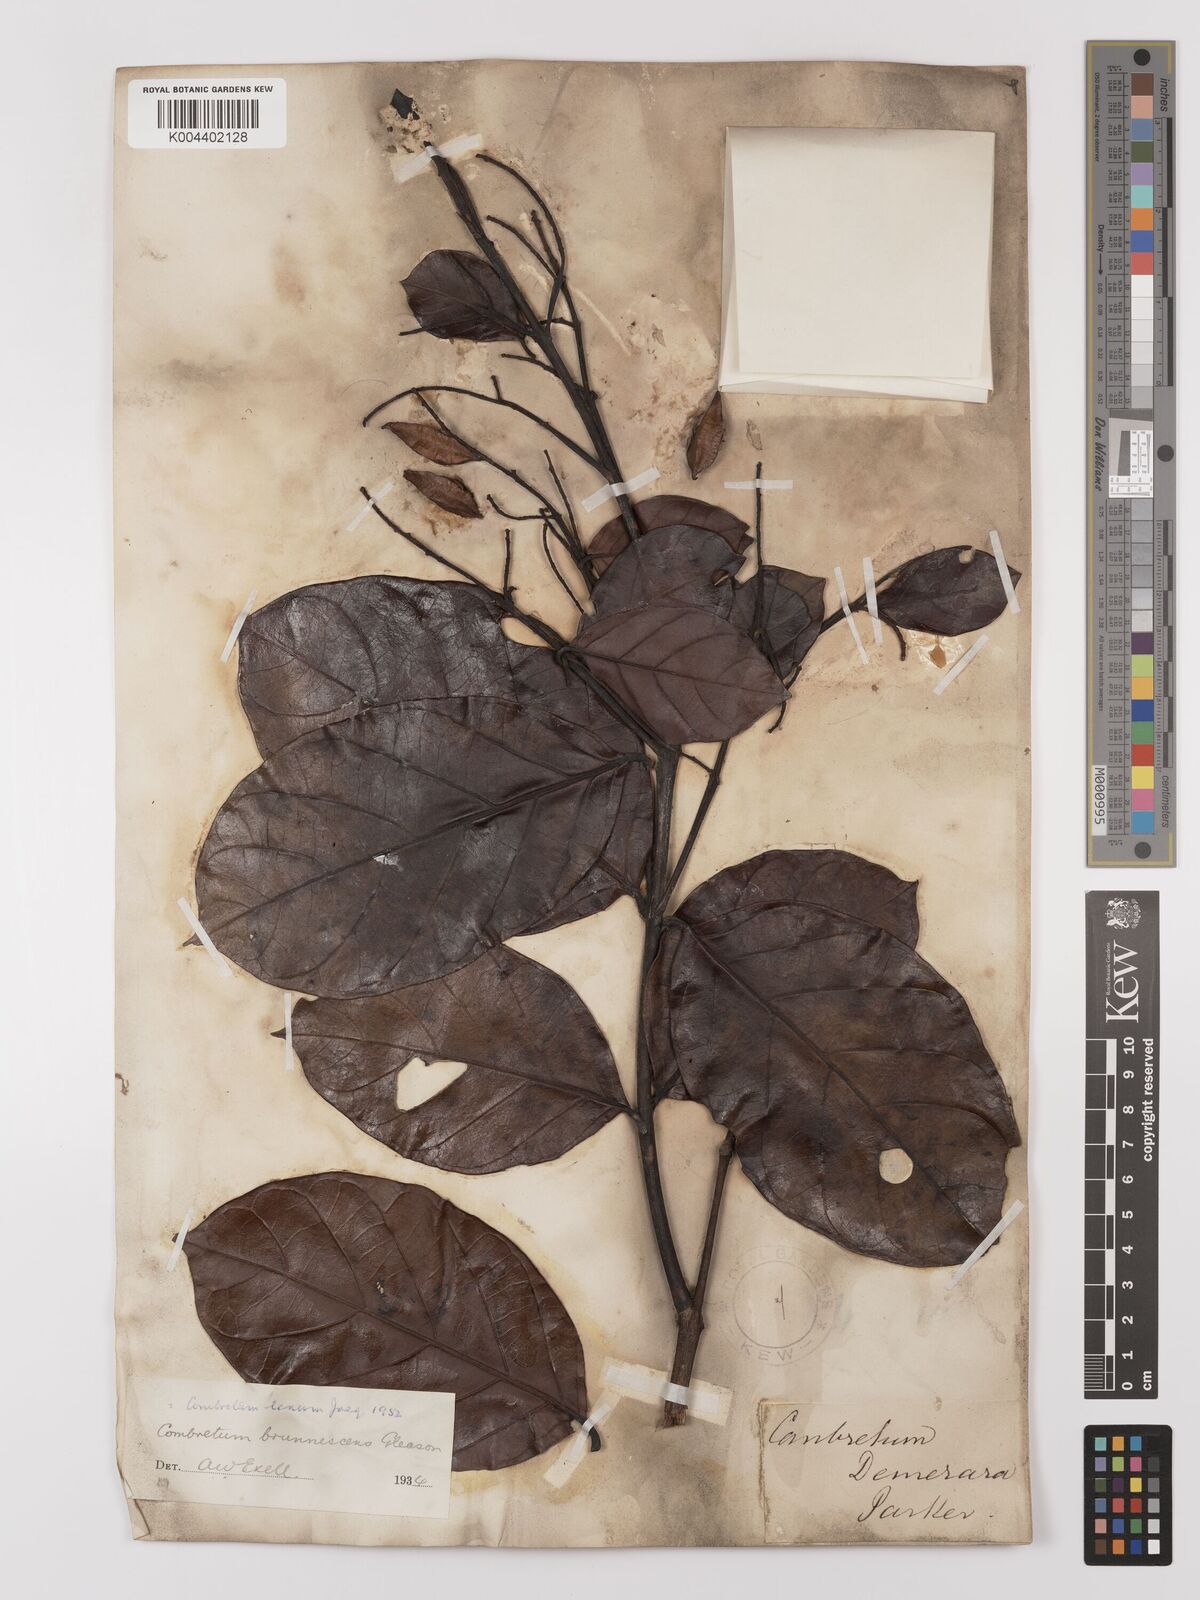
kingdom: Plantae
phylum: Tracheophyta
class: Magnoliopsida
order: Myrtales
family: Combretaceae
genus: Combretum
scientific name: Combretum
